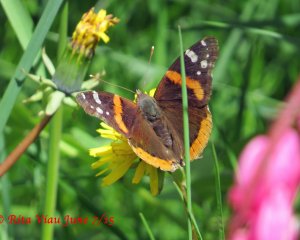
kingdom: Animalia
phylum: Arthropoda
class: Insecta
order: Lepidoptera
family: Nymphalidae
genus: Vanessa
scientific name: Vanessa atalanta
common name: Red Admiral
